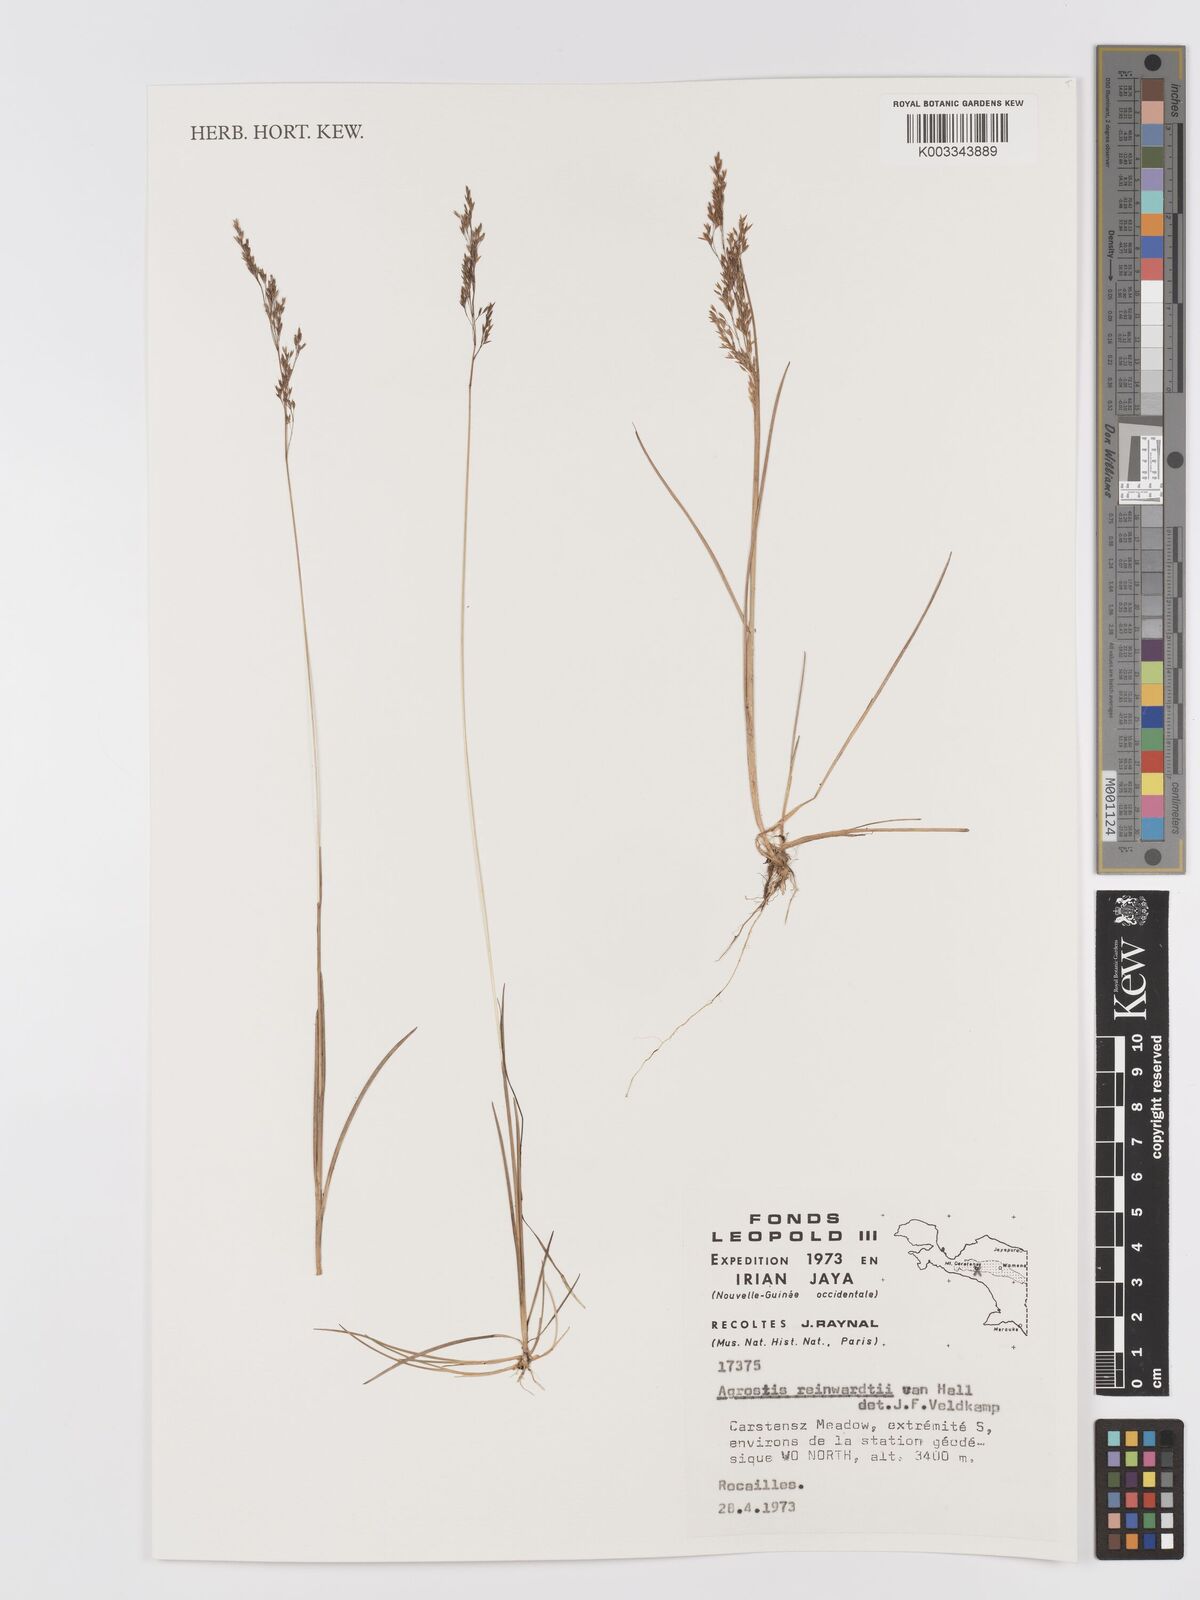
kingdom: Plantae
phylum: Tracheophyta
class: Liliopsida
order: Poales
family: Poaceae
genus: Agrostis
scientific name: Agrostis infirma
